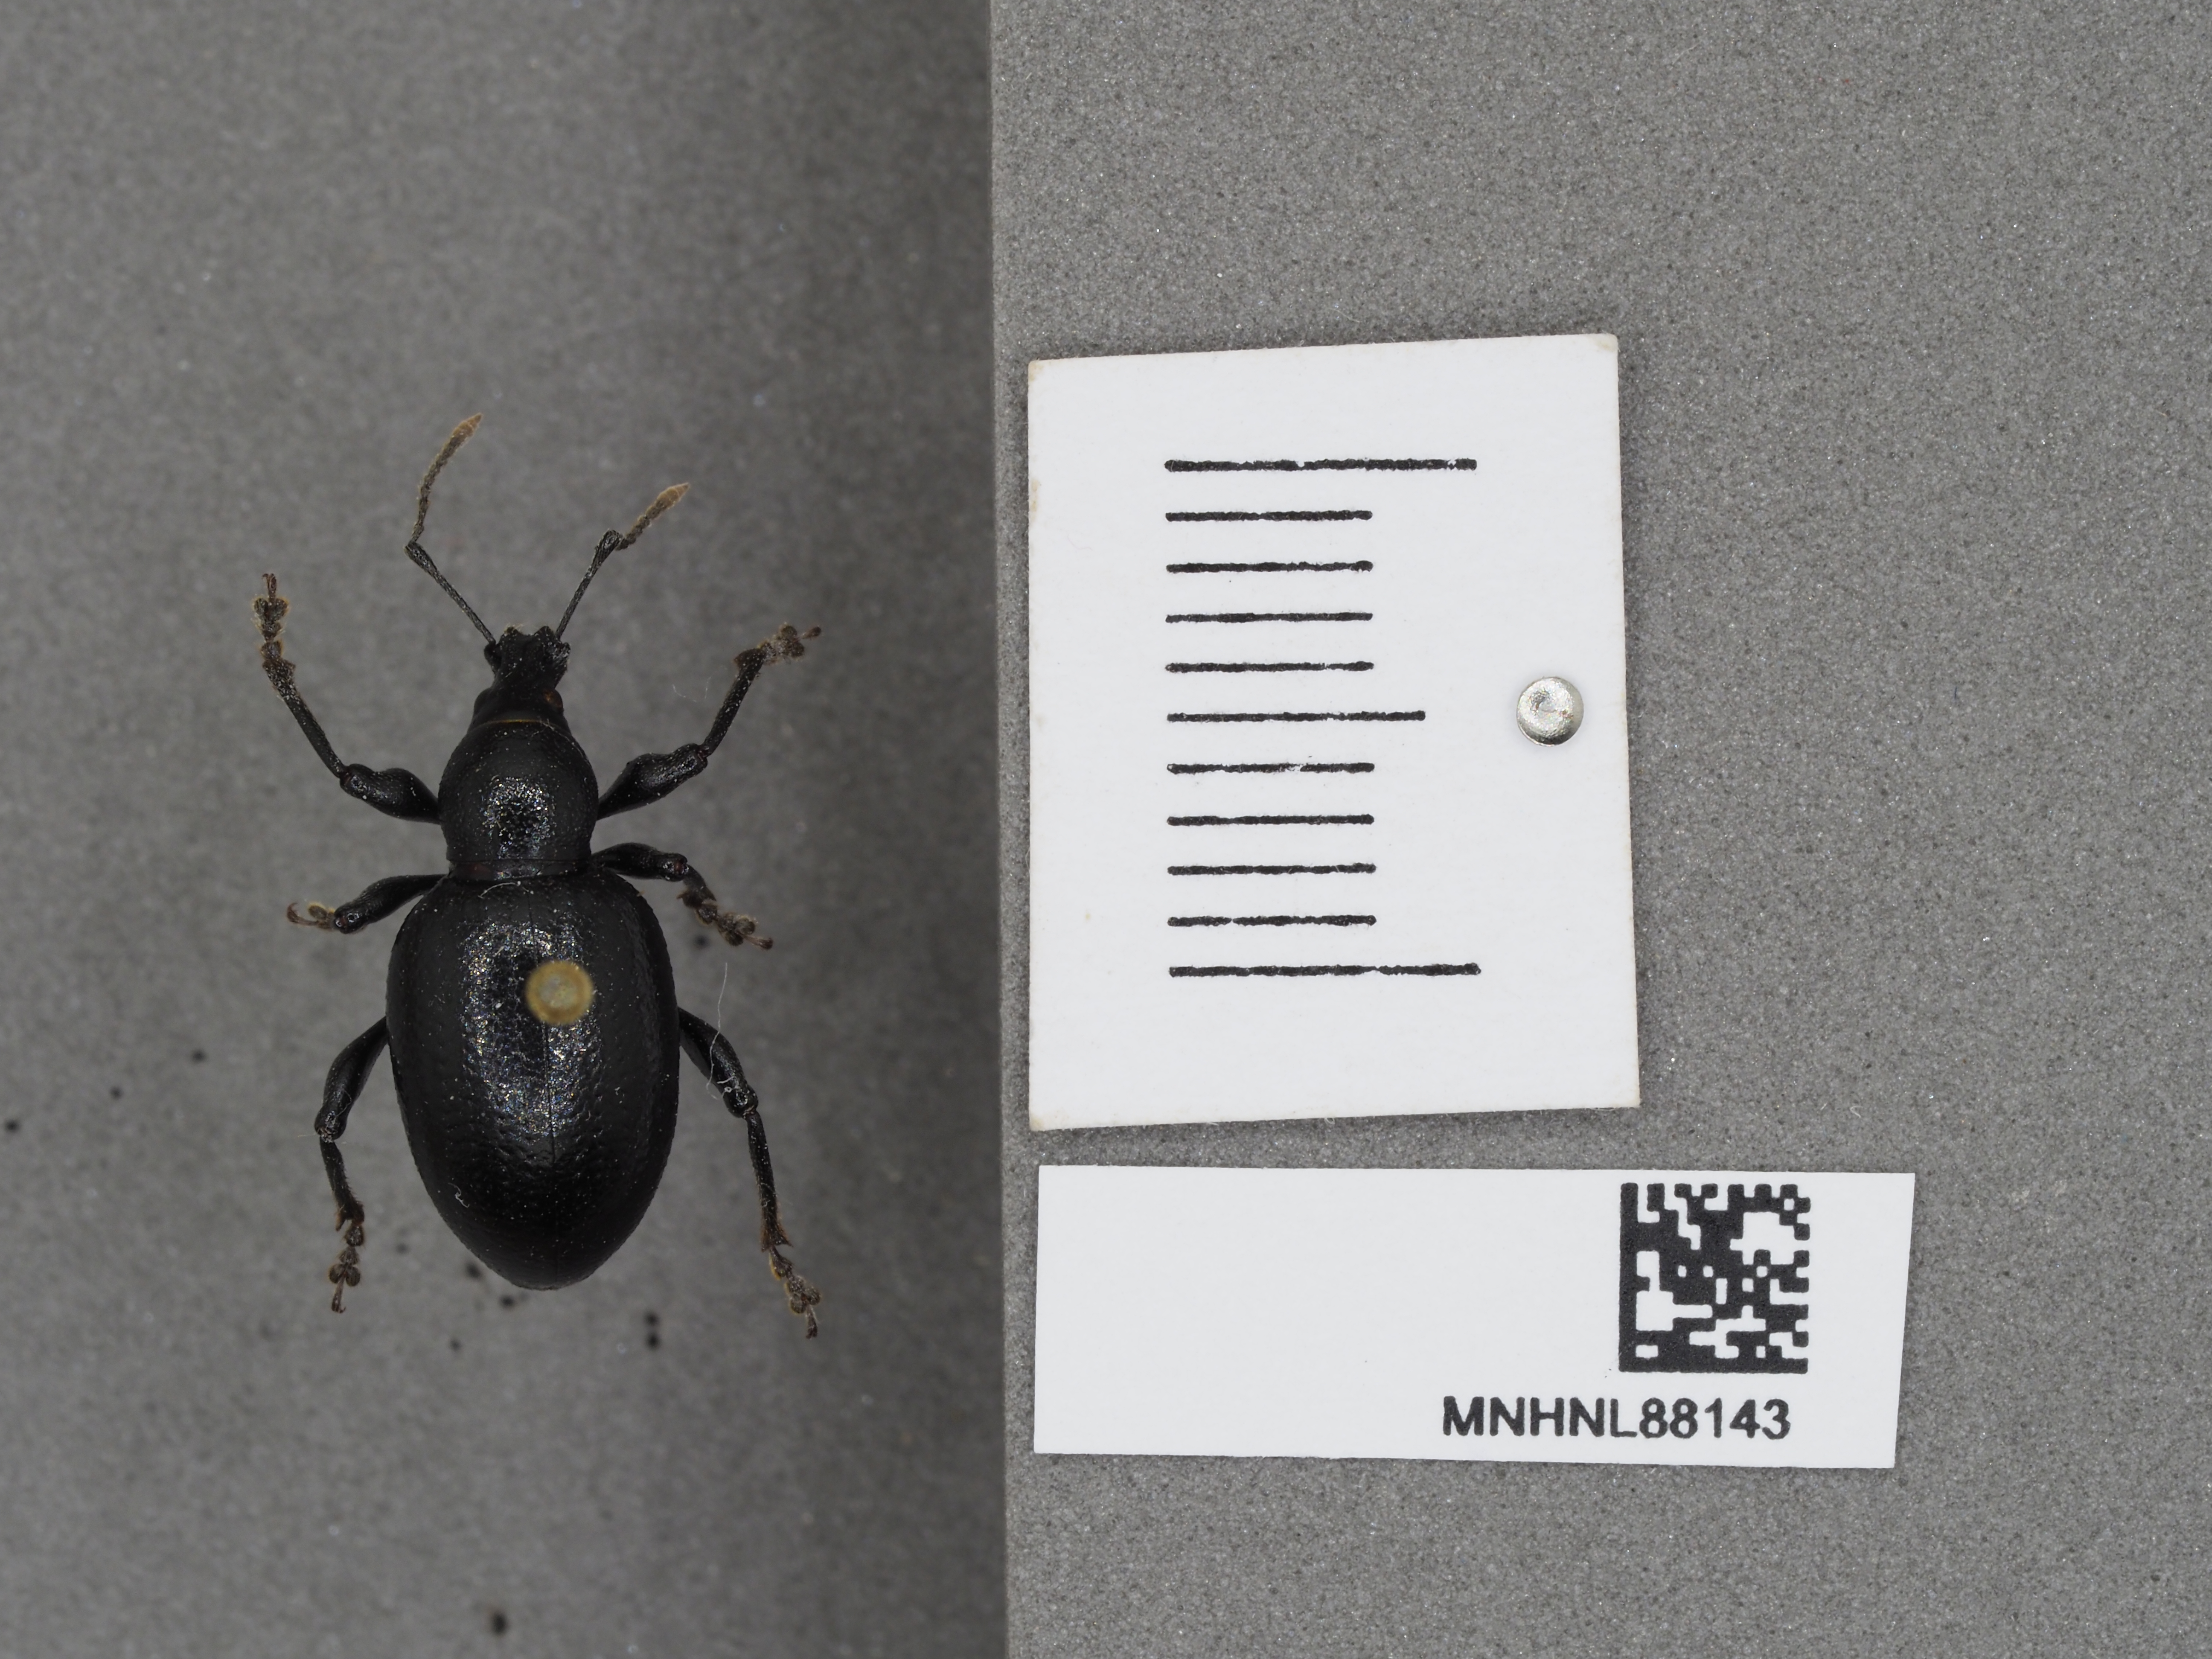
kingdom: Animalia
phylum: Arthropoda
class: Insecta
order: Coleoptera
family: Curculionidae
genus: Otiorhynchus
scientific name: Otiorhynchus
